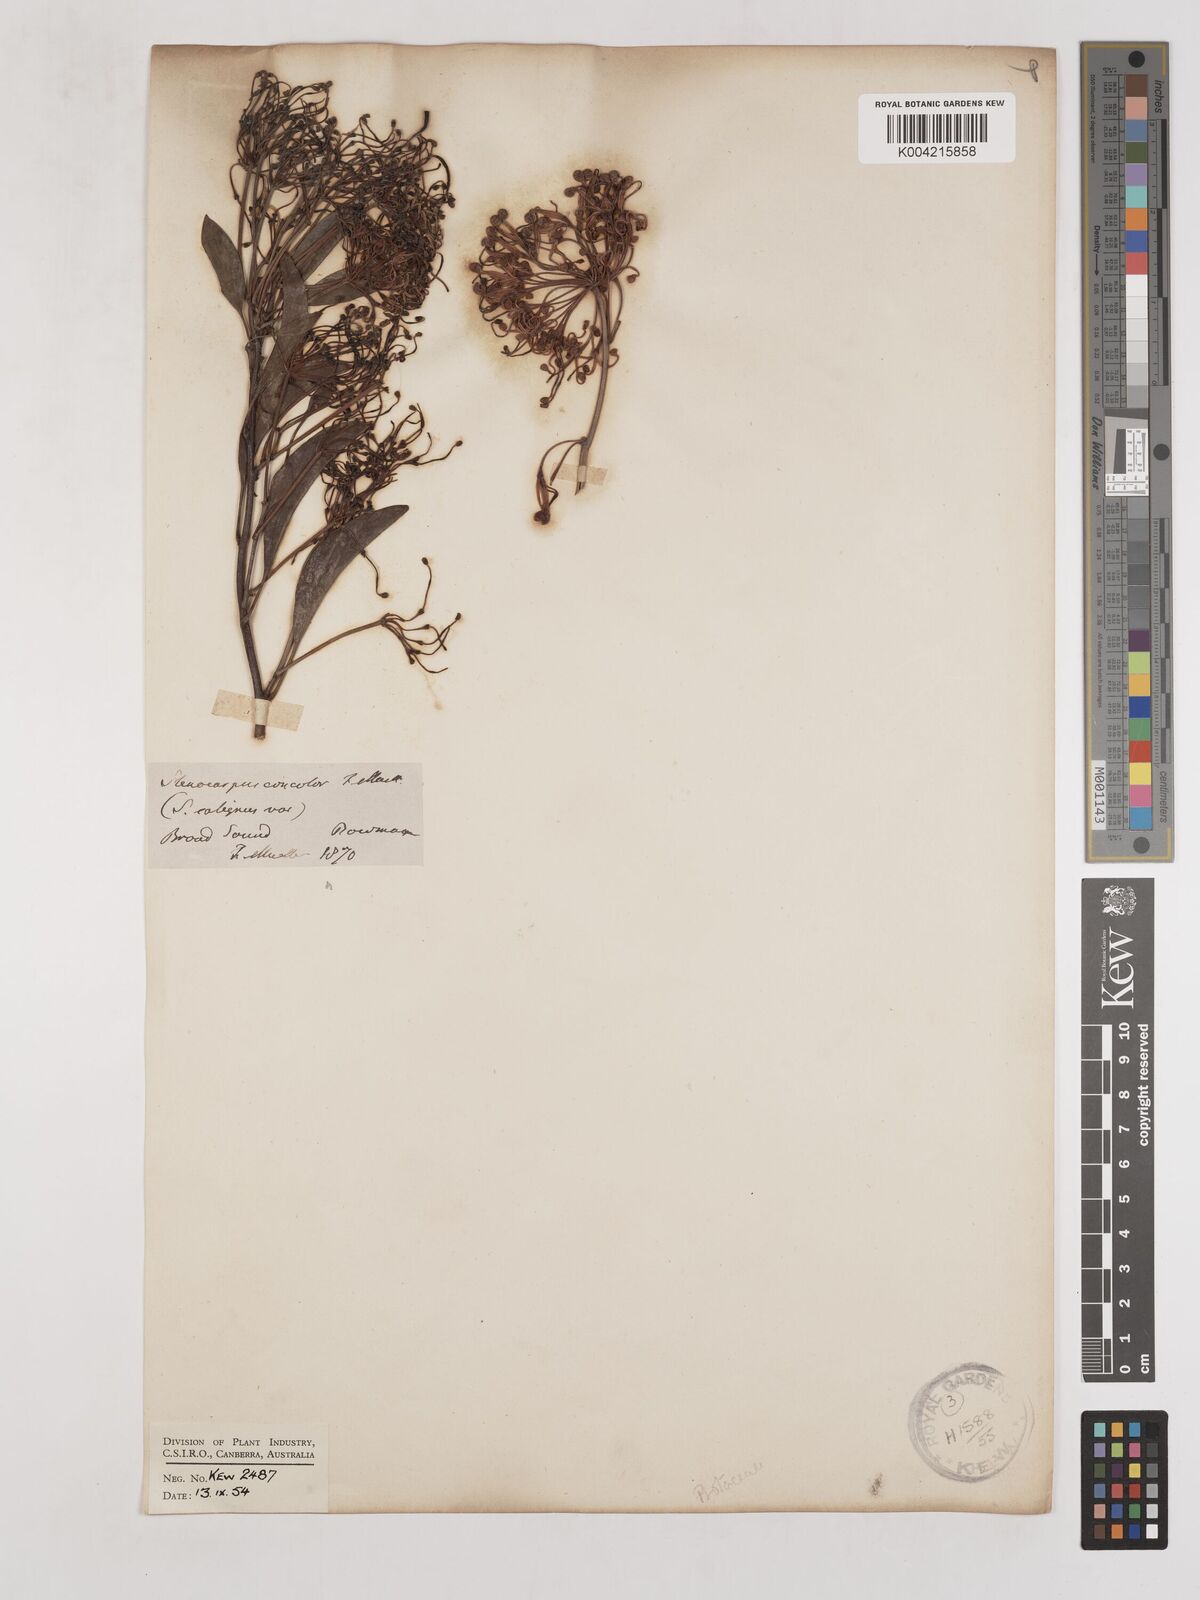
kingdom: Plantae
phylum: Tracheophyta
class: Magnoliopsida
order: Proteales
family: Proteaceae
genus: Stenocarpus
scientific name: Stenocarpus salignus
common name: Red silky-oak
